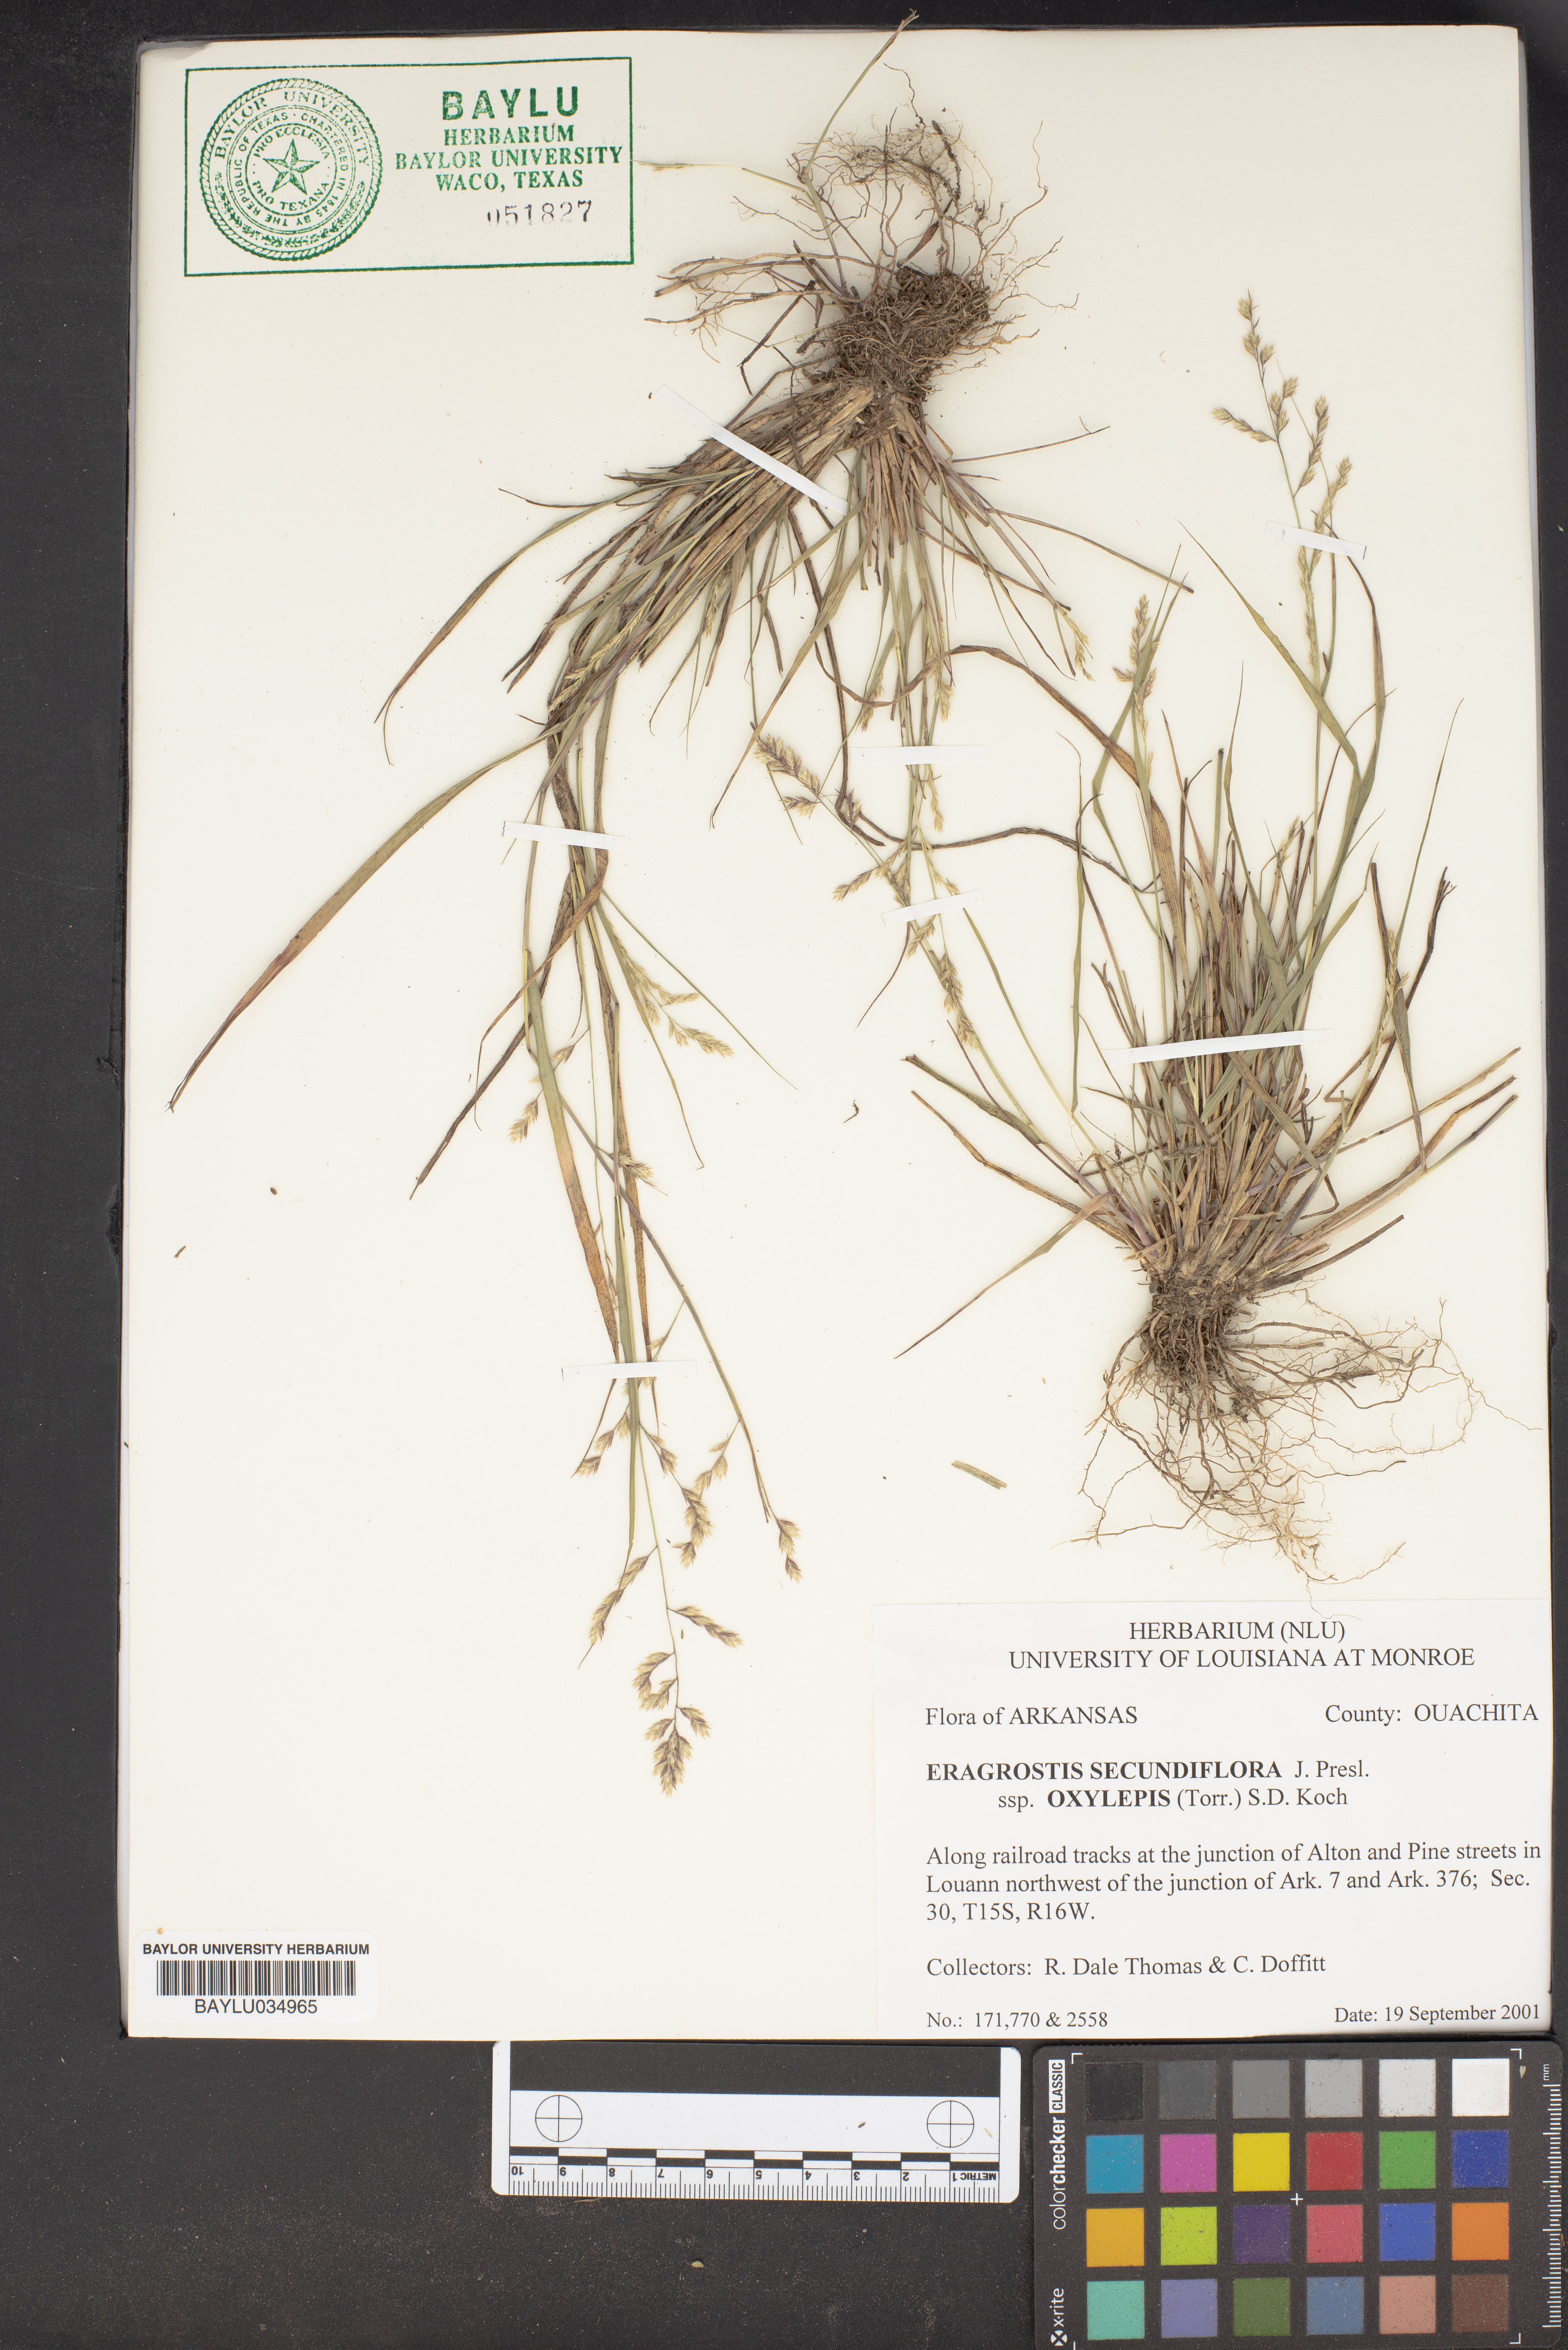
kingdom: Plantae
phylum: Tracheophyta
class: Liliopsida
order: Poales
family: Poaceae
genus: Eragrostis
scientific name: Eragrostis secundiflora
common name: Red love grass
